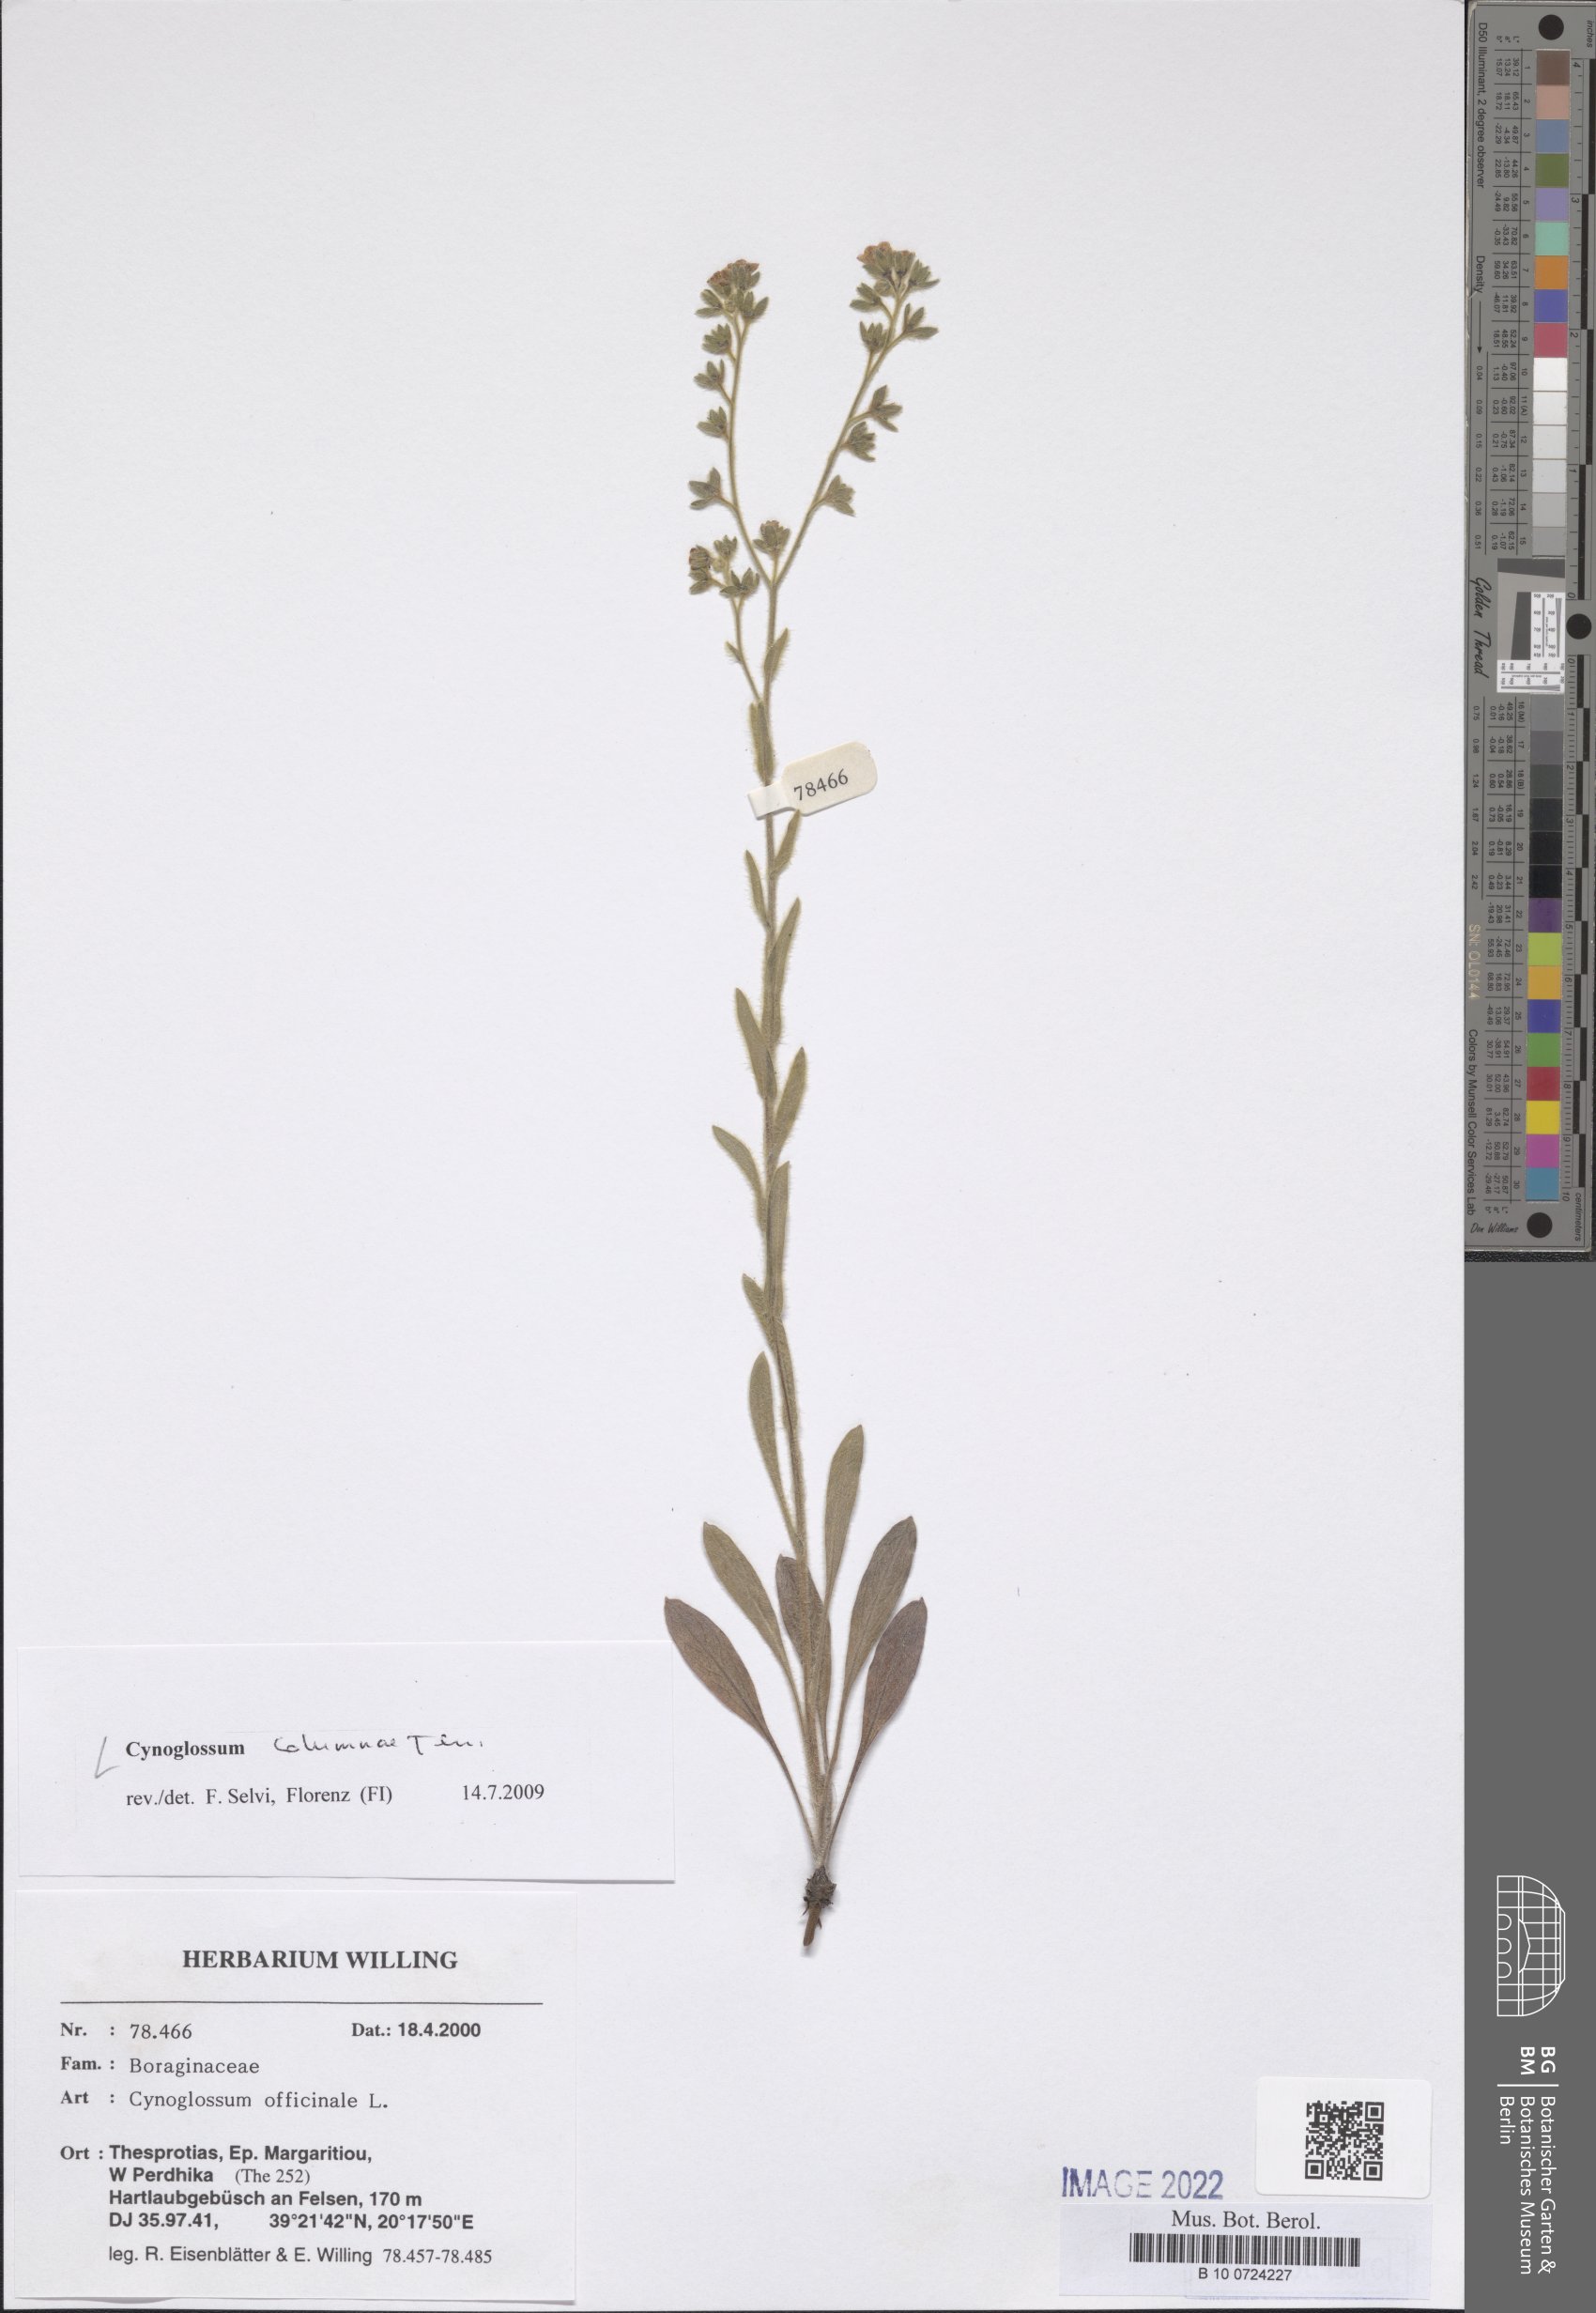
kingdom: Plantae
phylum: Tracheophyta
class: Magnoliopsida
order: Boraginales
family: Boraginaceae
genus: Rindera
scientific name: Rindera columnae
